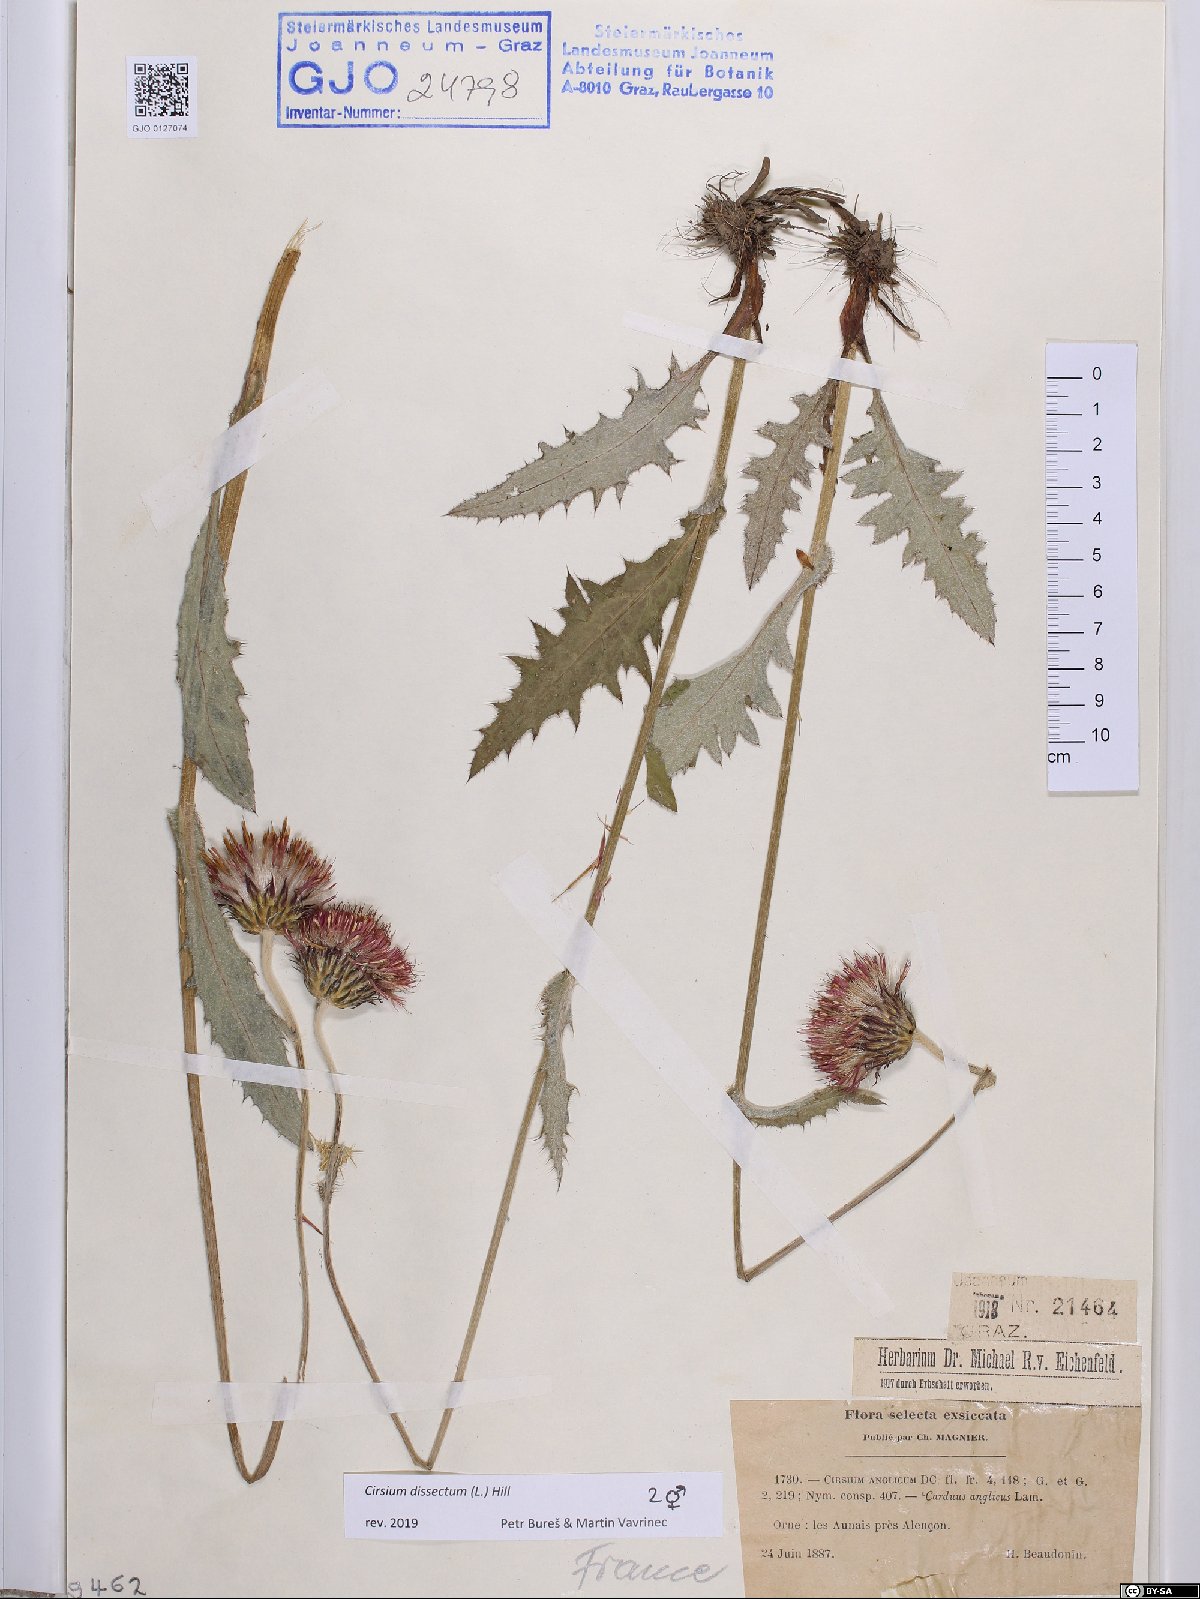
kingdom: Plantae
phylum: Tracheophyta
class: Magnoliopsida
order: Asterales
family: Asteraceae
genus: Cirsium
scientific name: Cirsium dissectum
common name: Meadow thistle
